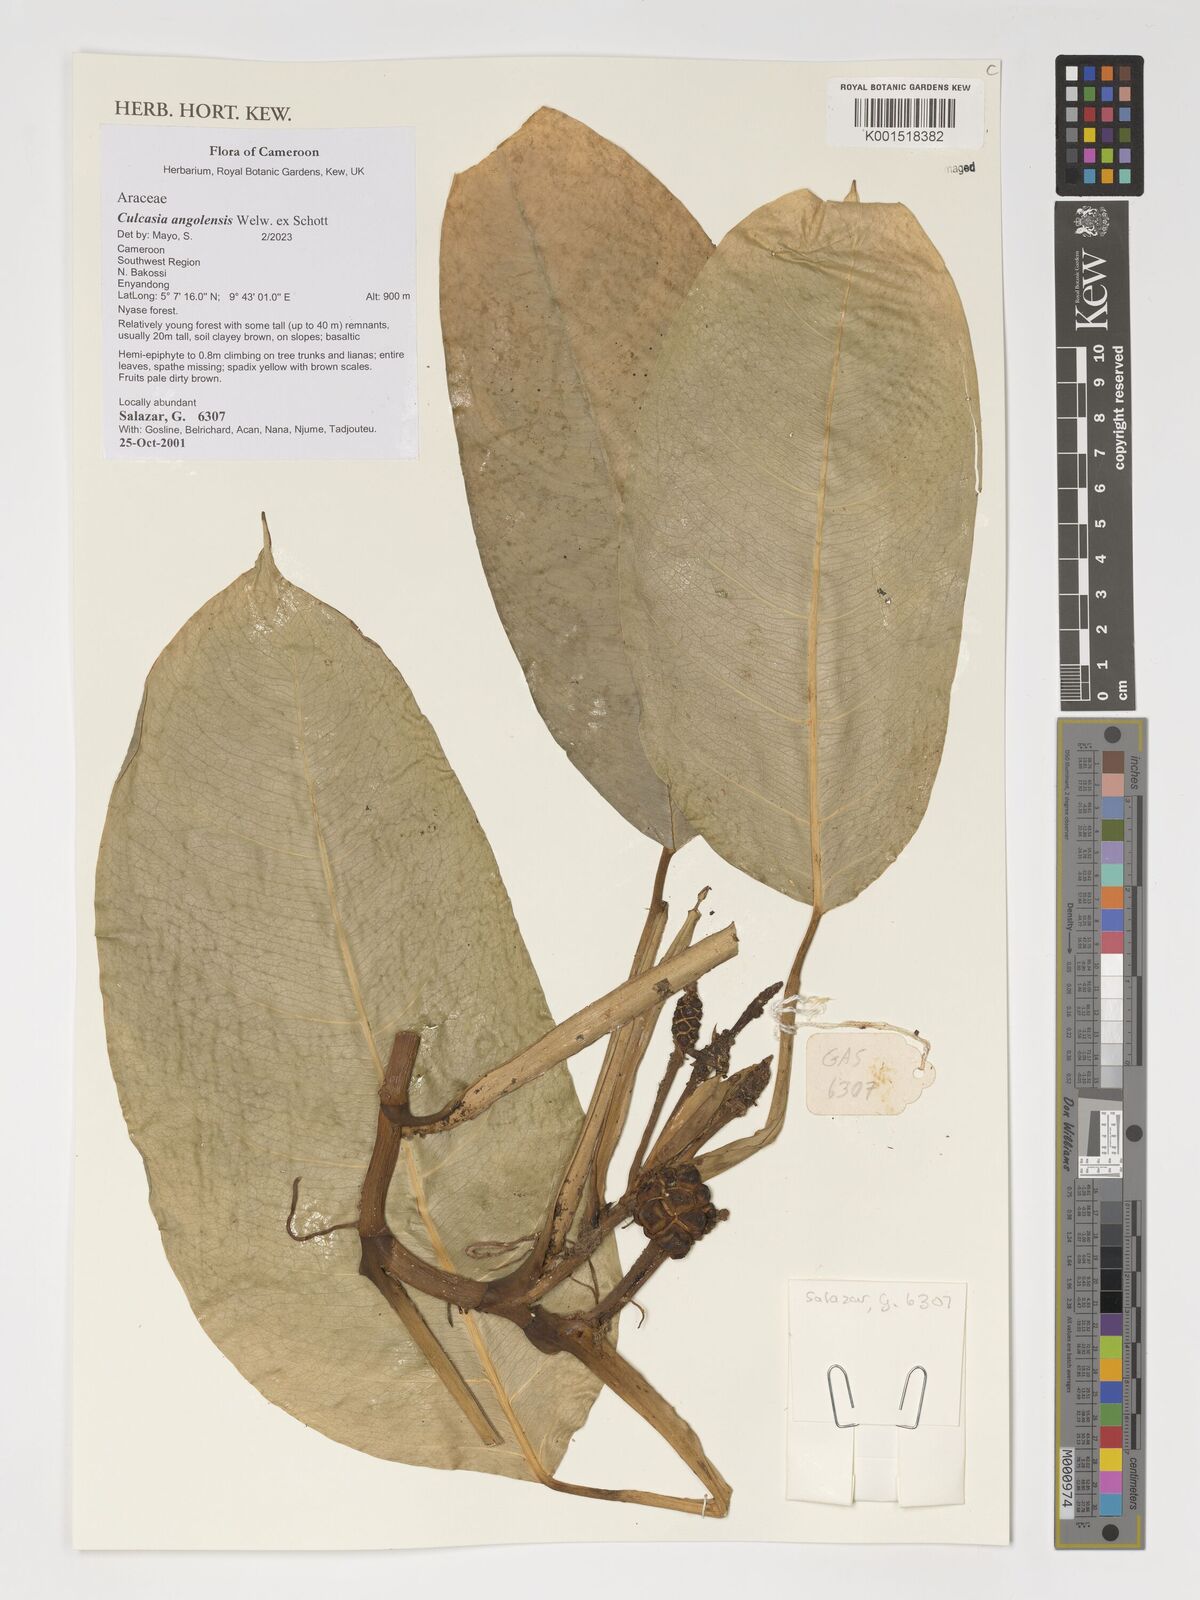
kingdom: Plantae
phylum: Tracheophyta
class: Liliopsida
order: Alismatales
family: Araceae
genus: Culcasia
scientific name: Culcasia angolensis
